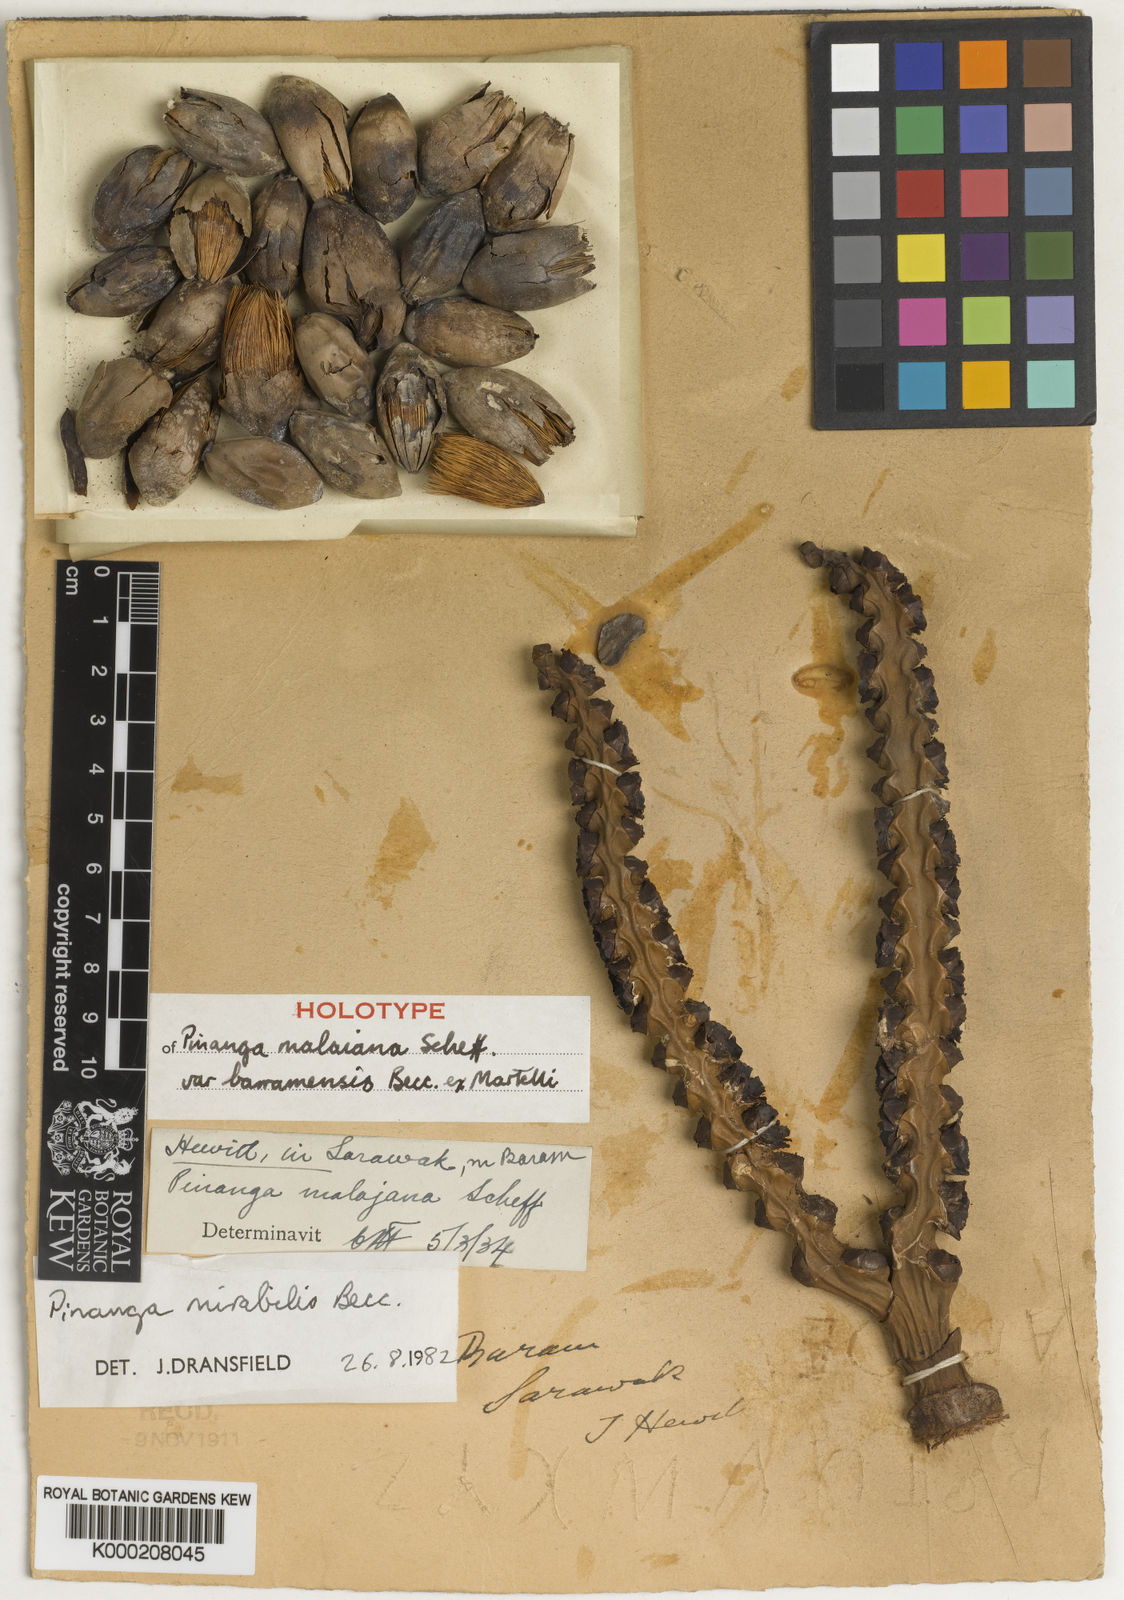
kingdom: Plantae
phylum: Tracheophyta
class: Liliopsida
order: Arecales
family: Arecaceae
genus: Pinanga
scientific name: Pinanga mirabilis
